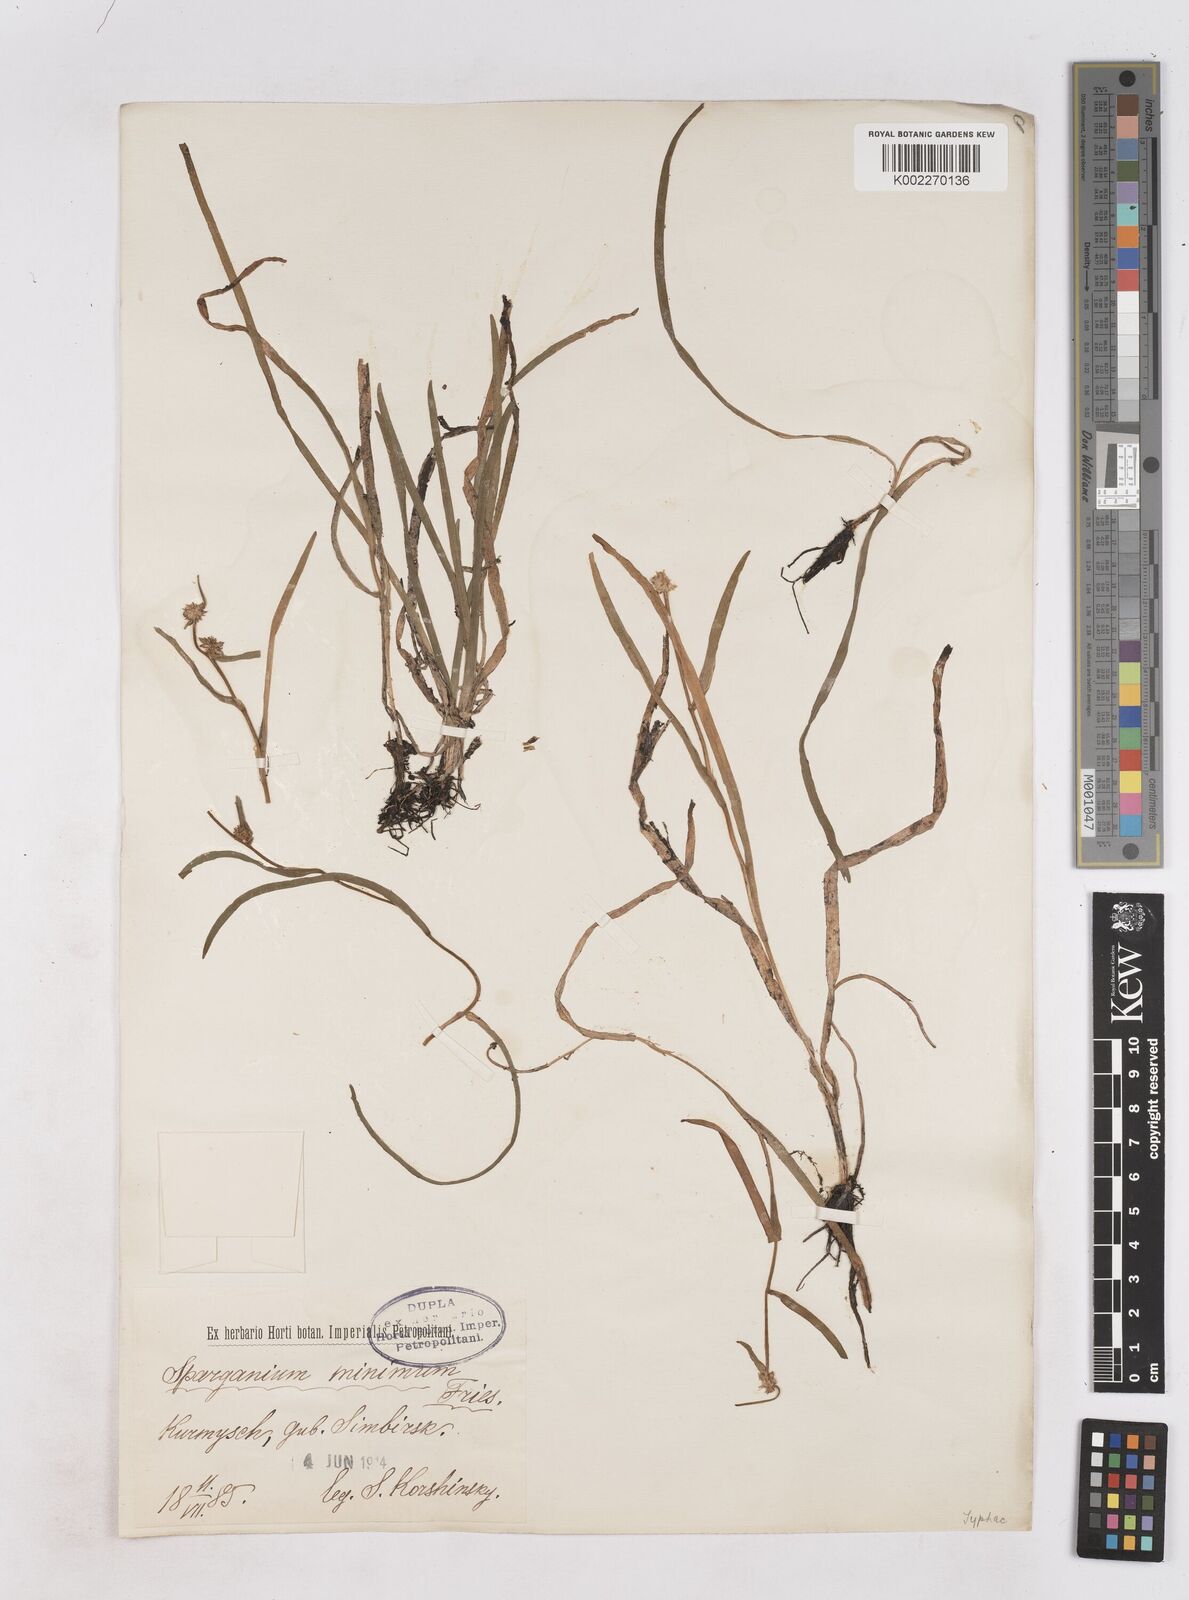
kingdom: Plantae
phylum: Tracheophyta
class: Liliopsida
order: Poales
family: Typhaceae
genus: Sparganium
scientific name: Sparganium natans
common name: Least bur-reed
